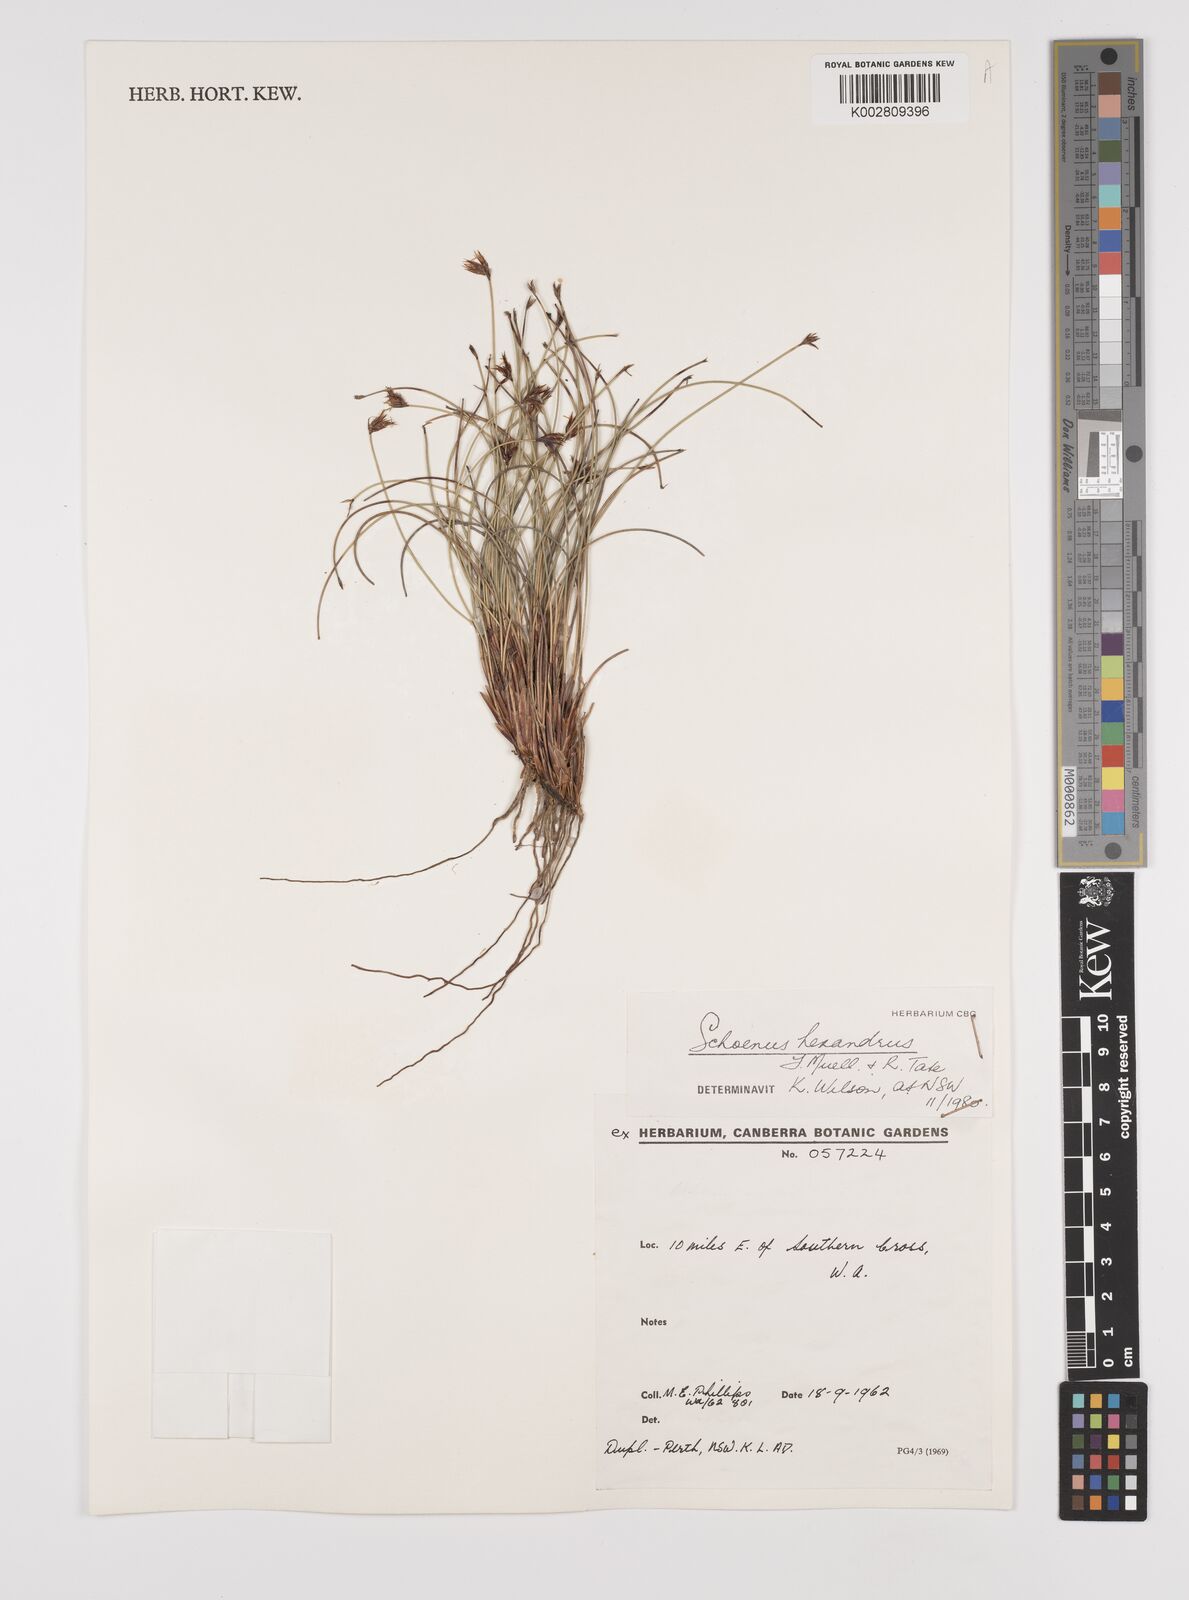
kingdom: Plantae
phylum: Tracheophyta
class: Liliopsida
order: Poales
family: Cyperaceae
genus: Schoenus
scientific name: Schoenus hexander
